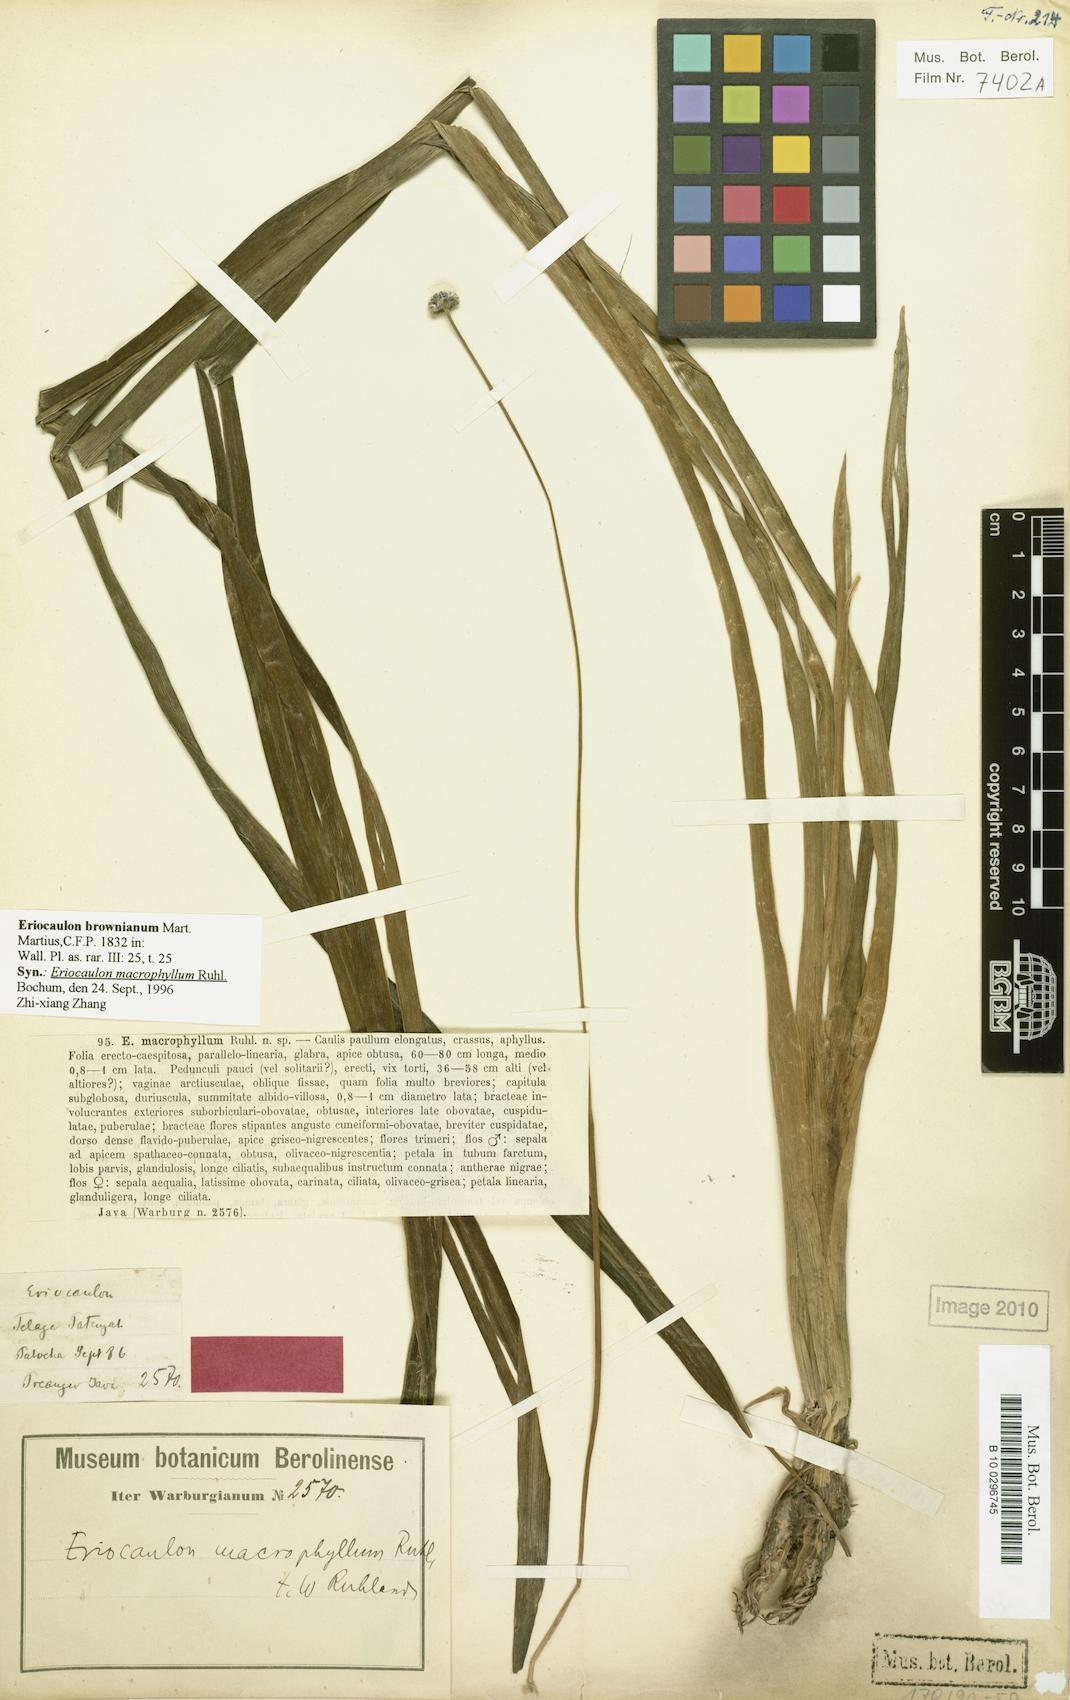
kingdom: Plantae
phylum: Tracheophyta
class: Liliopsida
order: Poales
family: Eriocaulaceae
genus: Eriocaulon
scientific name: Eriocaulon brownianum
